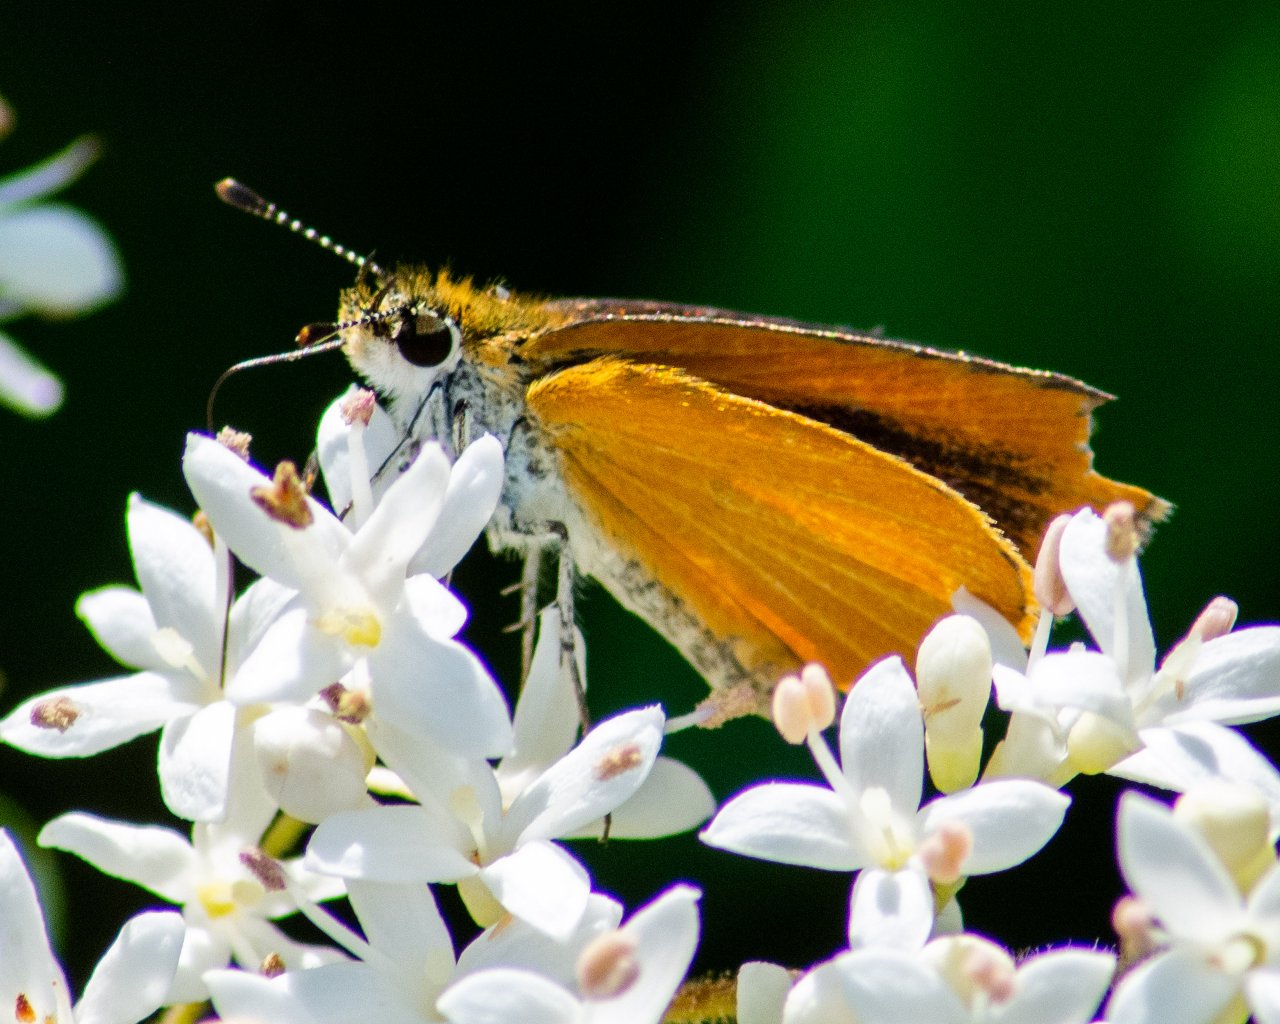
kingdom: Animalia
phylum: Arthropoda
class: Insecta
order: Lepidoptera
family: Hesperiidae
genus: Ancyloxypha
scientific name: Ancyloxypha numitor
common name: Least Skipper
